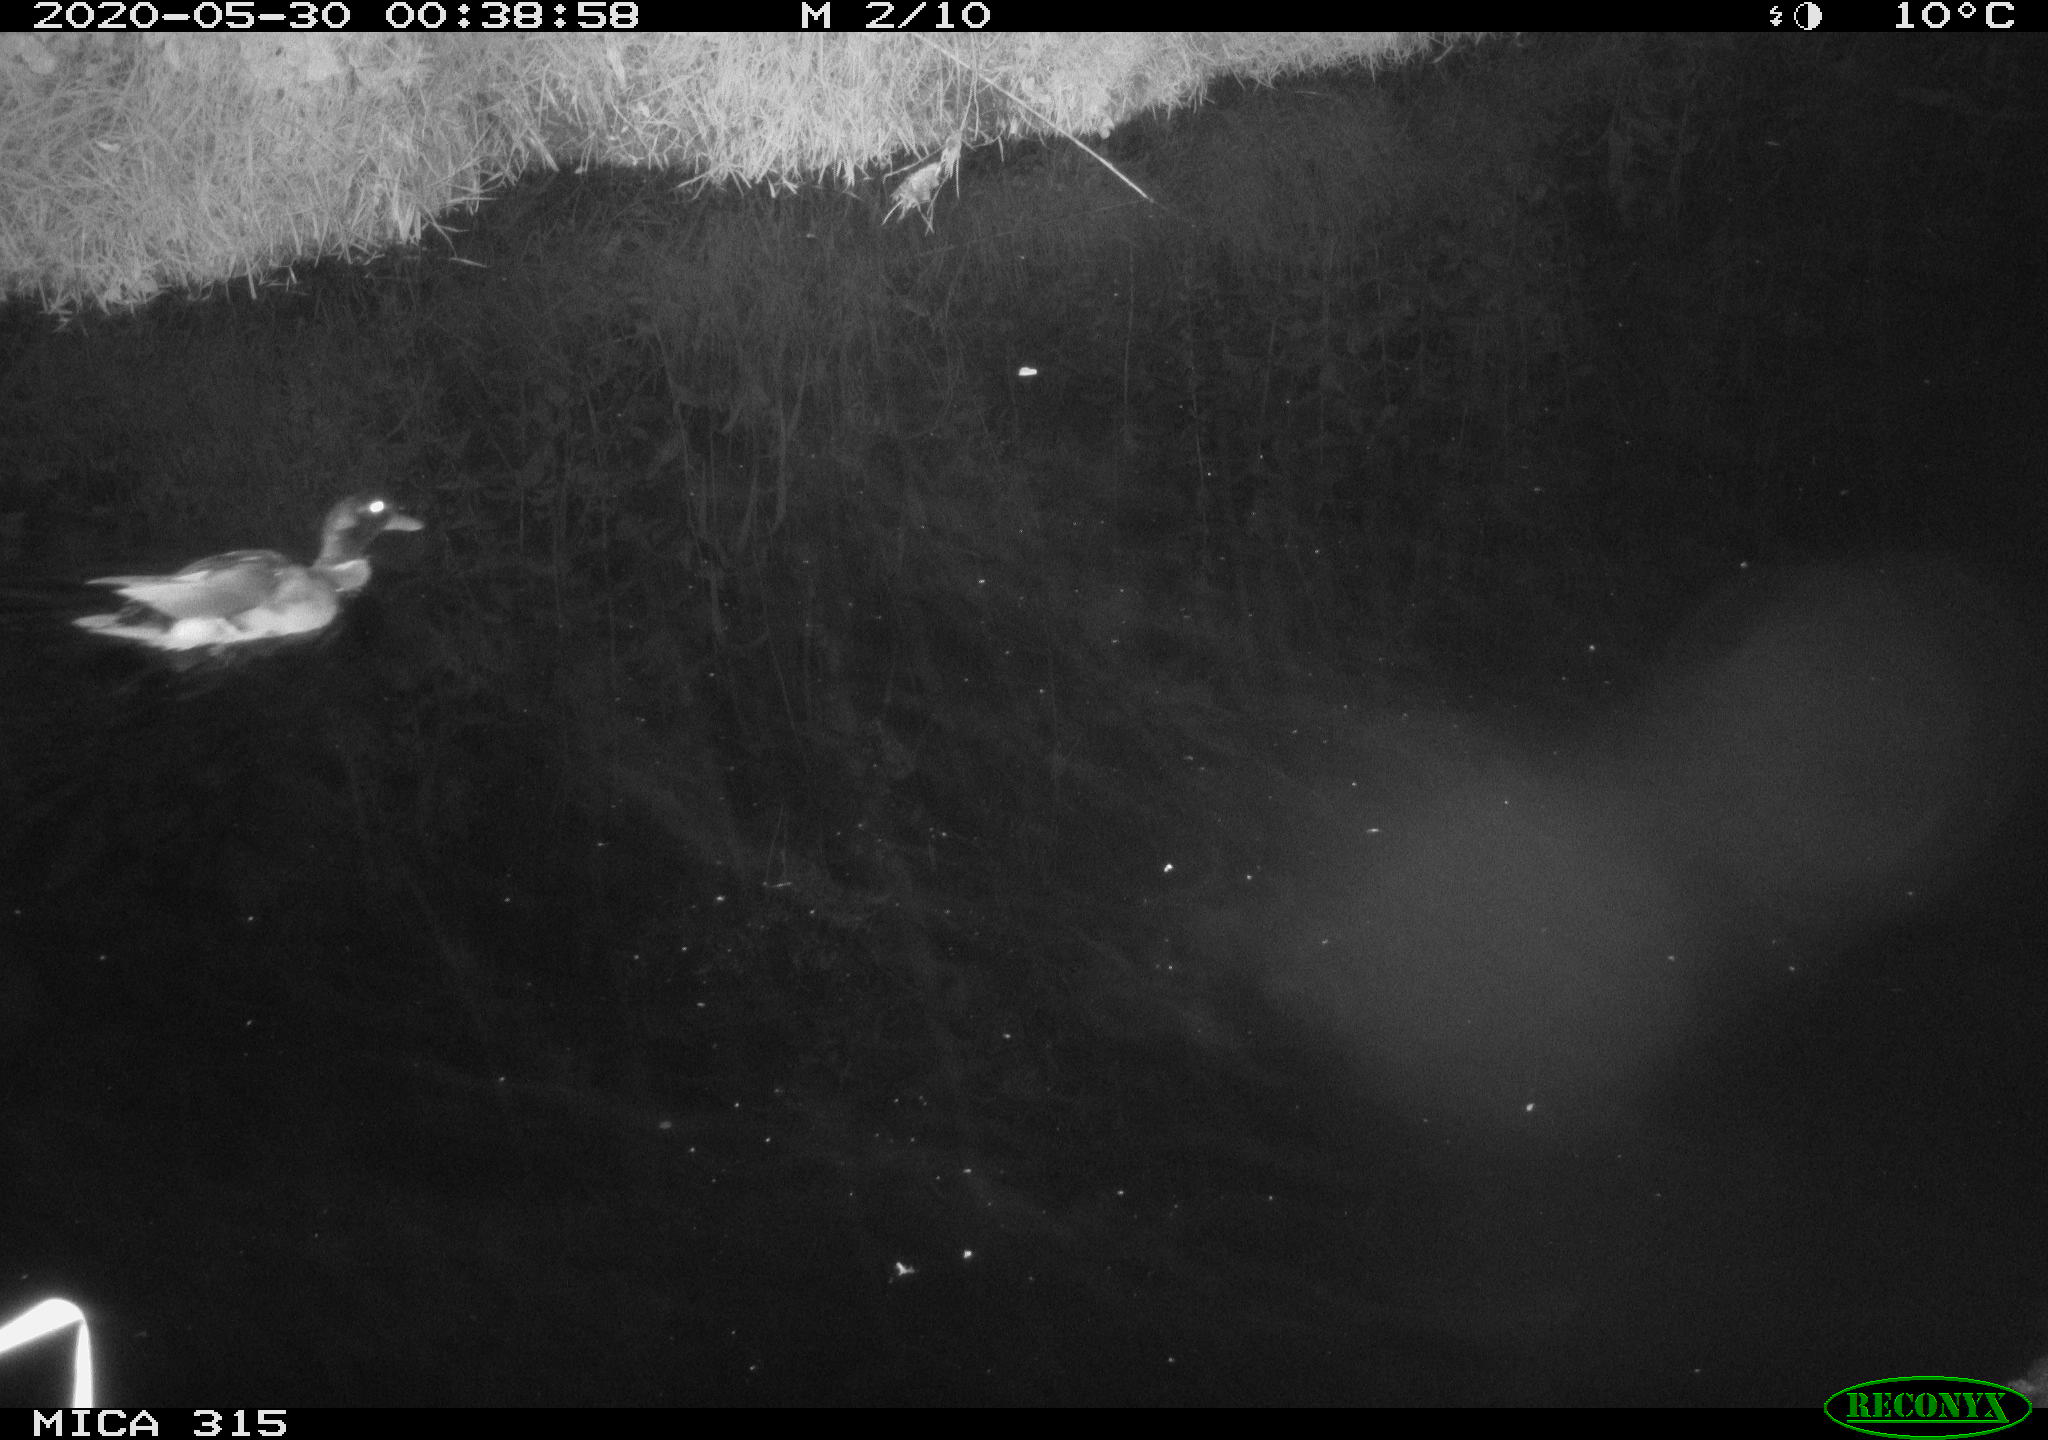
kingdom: Animalia
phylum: Chordata
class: Aves
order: Anseriformes
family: Anatidae
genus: Anas
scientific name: Anas platyrhynchos
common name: Mallard
